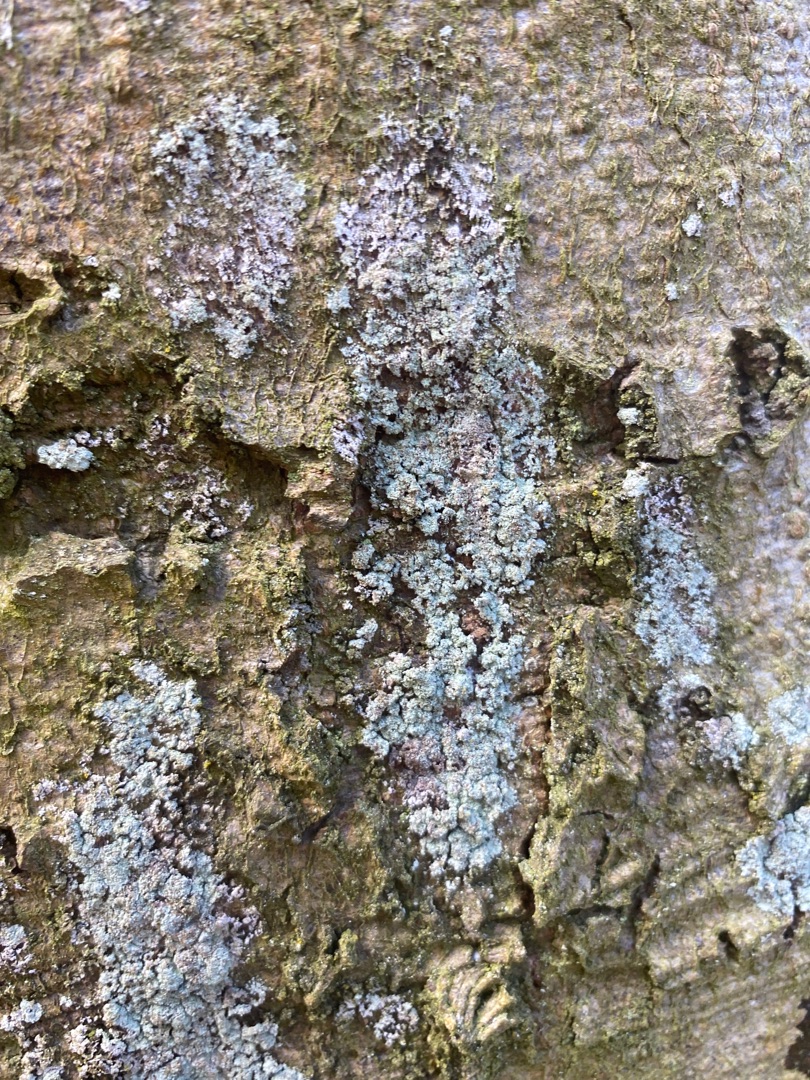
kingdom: Fungi
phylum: Ascomycota
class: Lecanoromycetes
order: Lecanorales
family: Stereocaulaceae
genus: Lepraria
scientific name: Lepraria
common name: Støvlav
